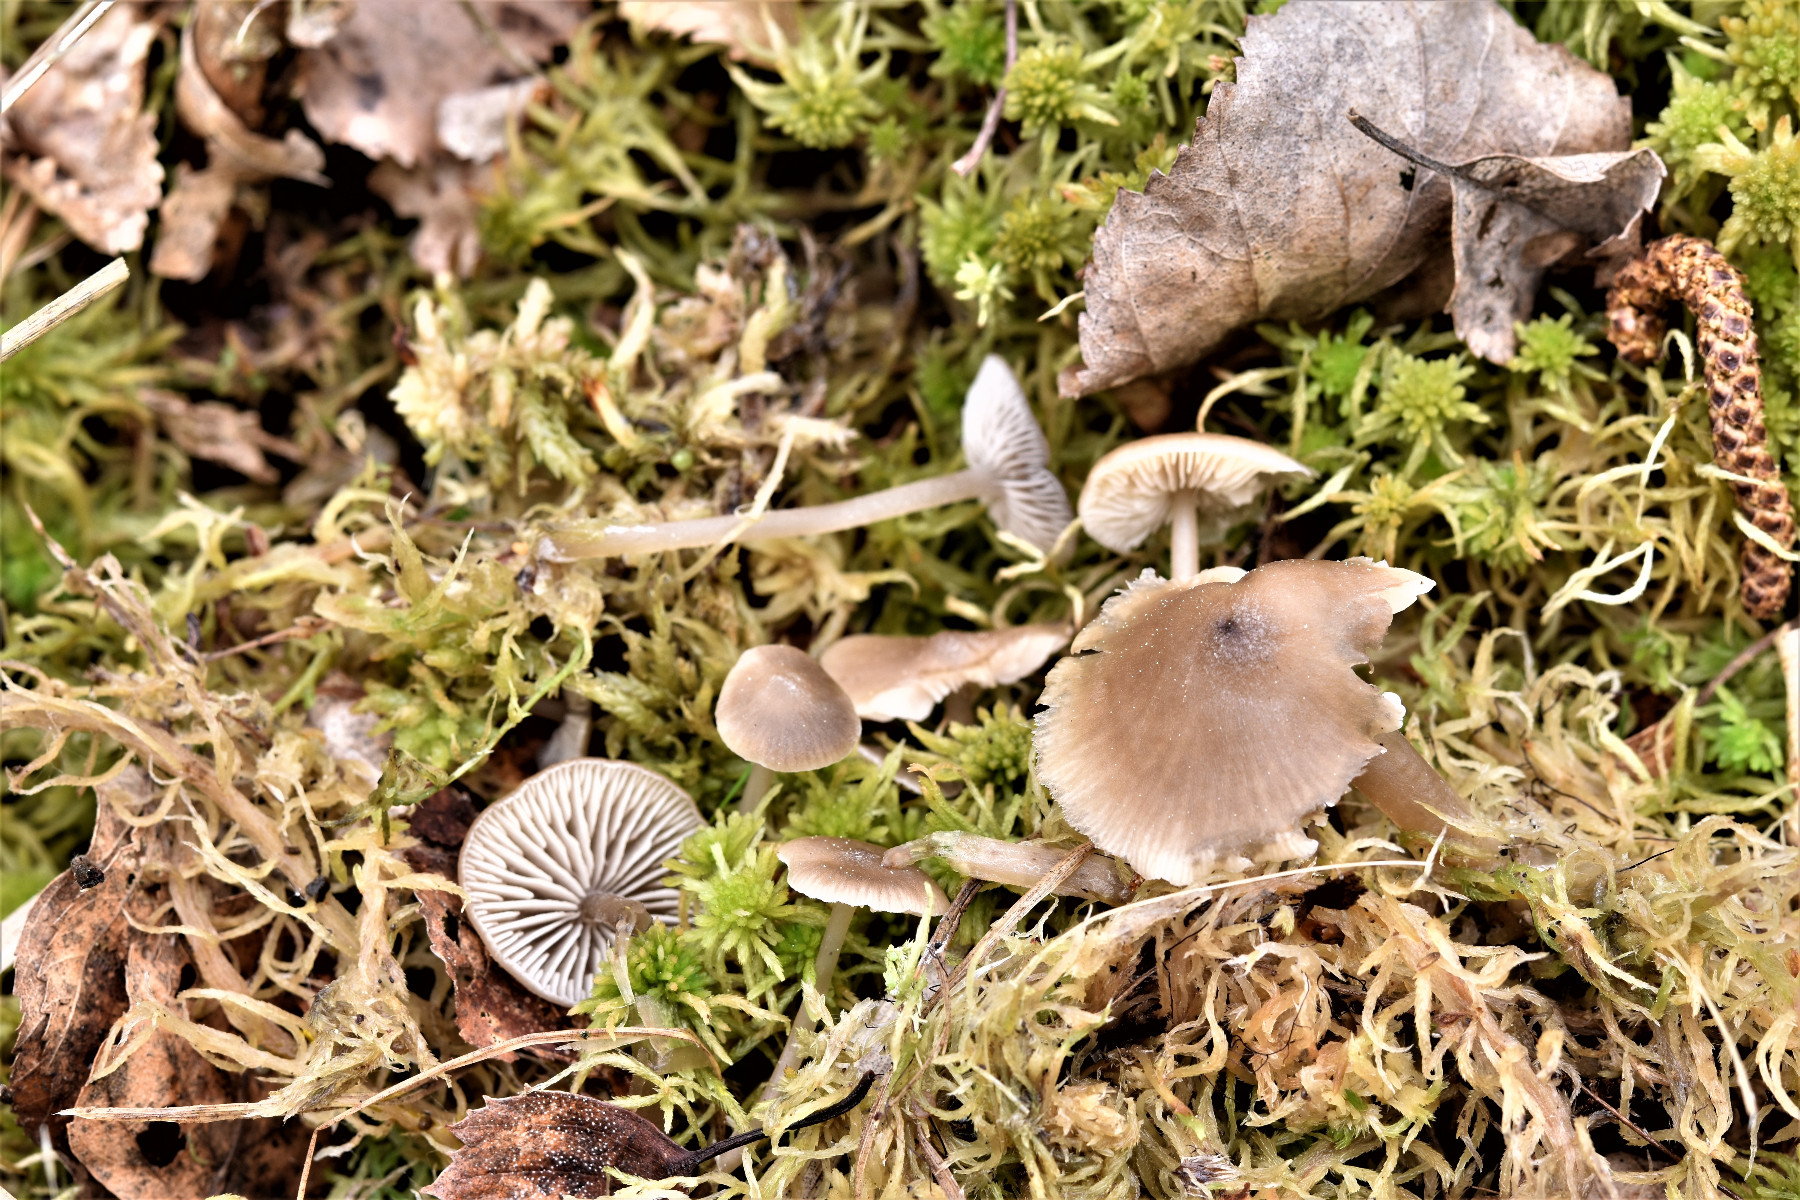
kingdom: Fungi
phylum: Basidiomycota
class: Agaricomycetes
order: Agaricales
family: Lyophyllaceae
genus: Sphagnurus
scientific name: Sphagnurus paluster
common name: tørvemos-gråblad
